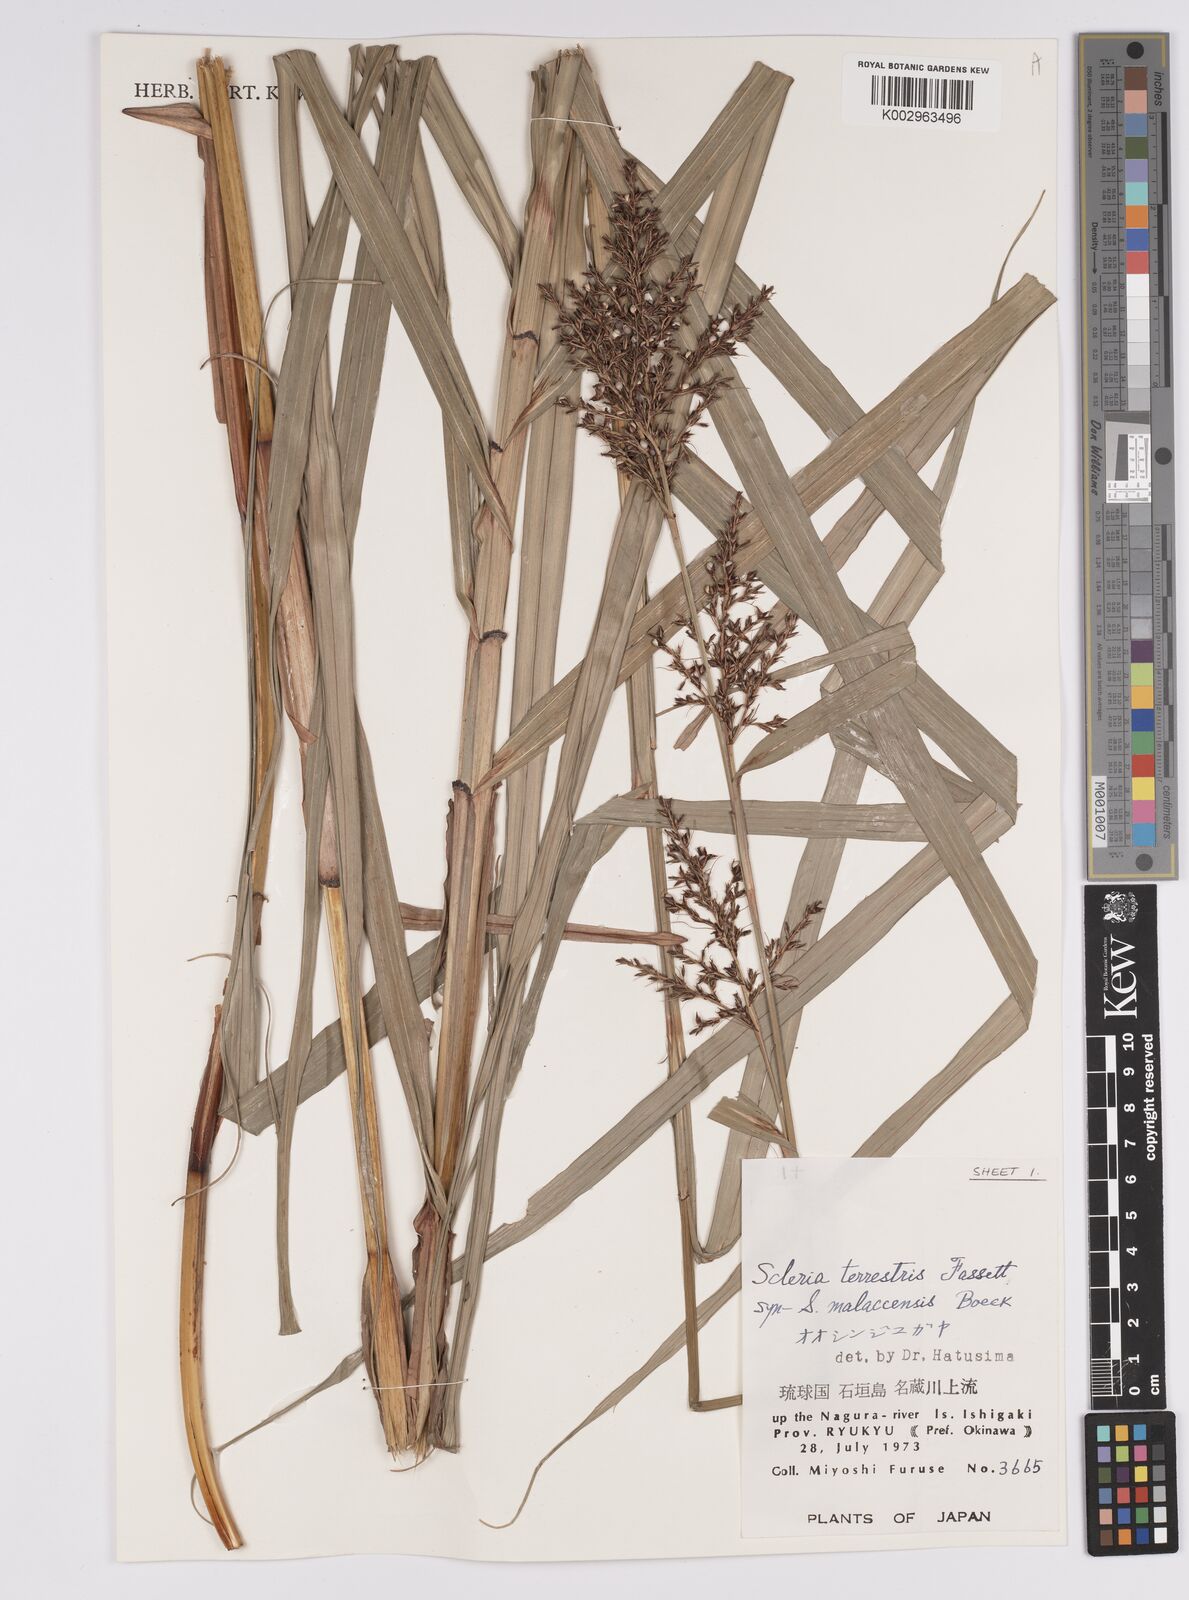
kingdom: Plantae
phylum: Tracheophyta
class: Liliopsida
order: Poales
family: Cyperaceae
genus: Scleria
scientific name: Scleria terrestris
